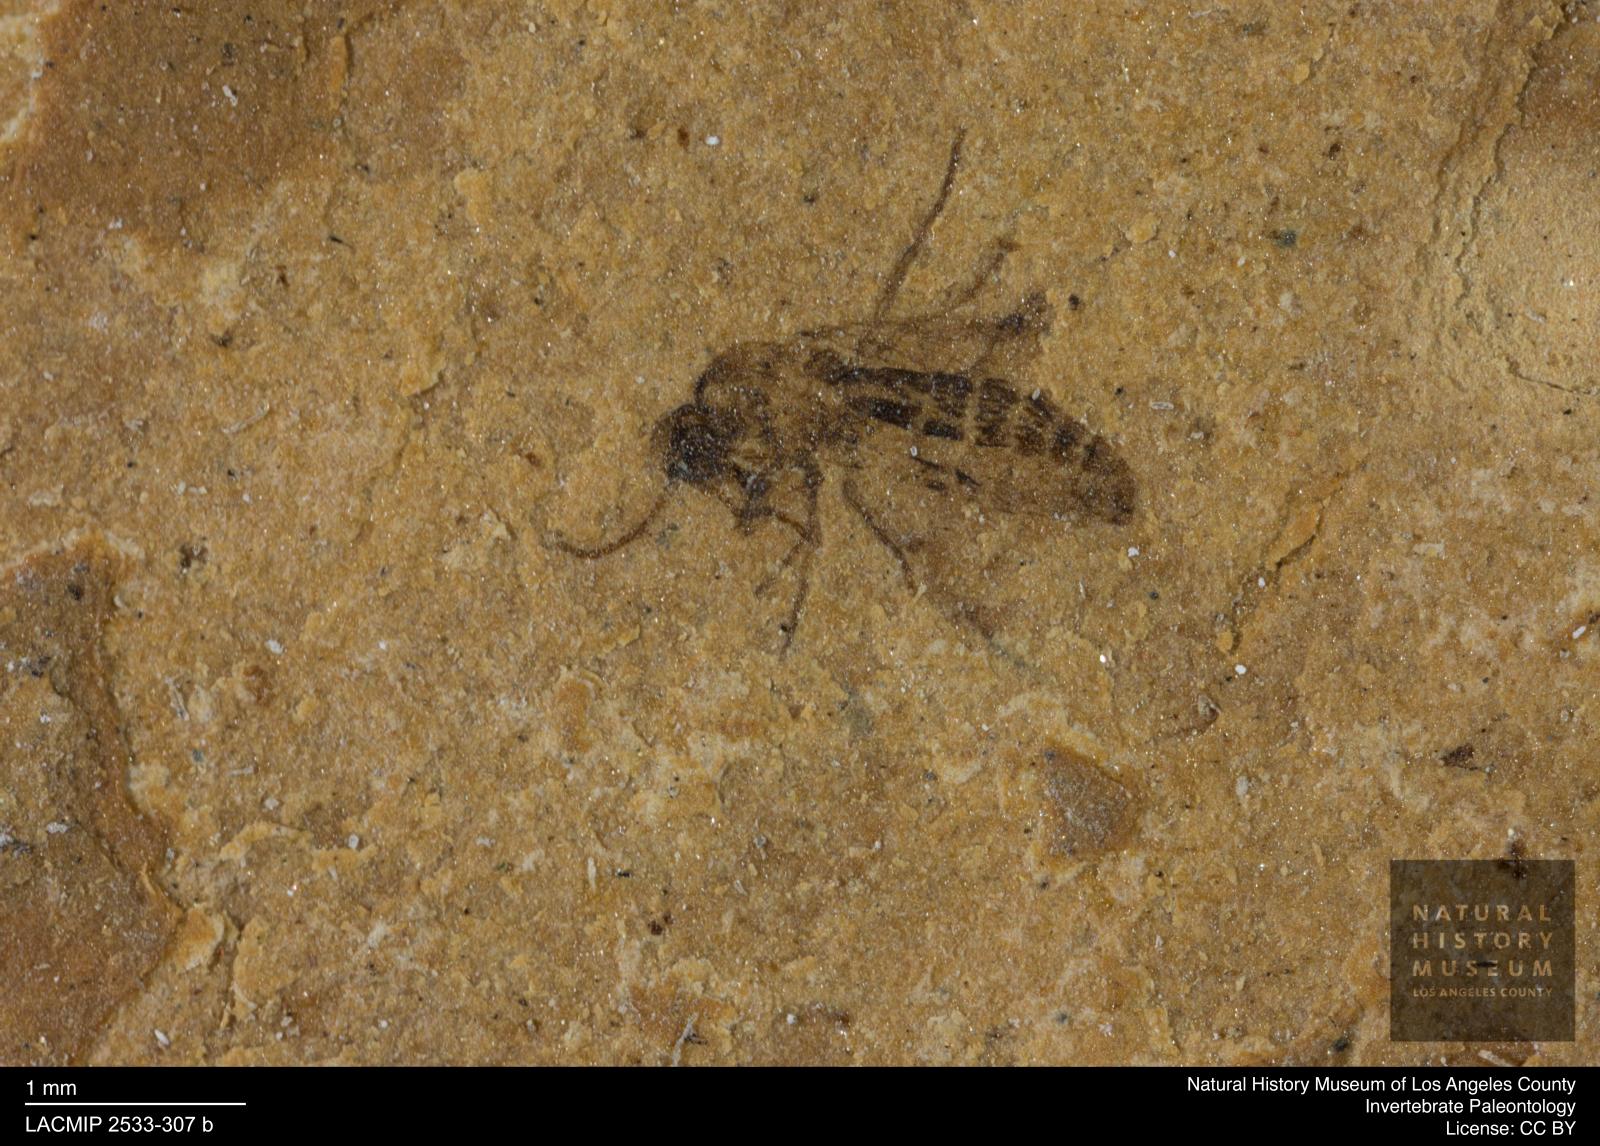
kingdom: Animalia
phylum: Arthropoda
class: Insecta
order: Diptera
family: Ceratopogonidae
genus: Atrichopogon
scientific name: Atrichopogon brunnescens
